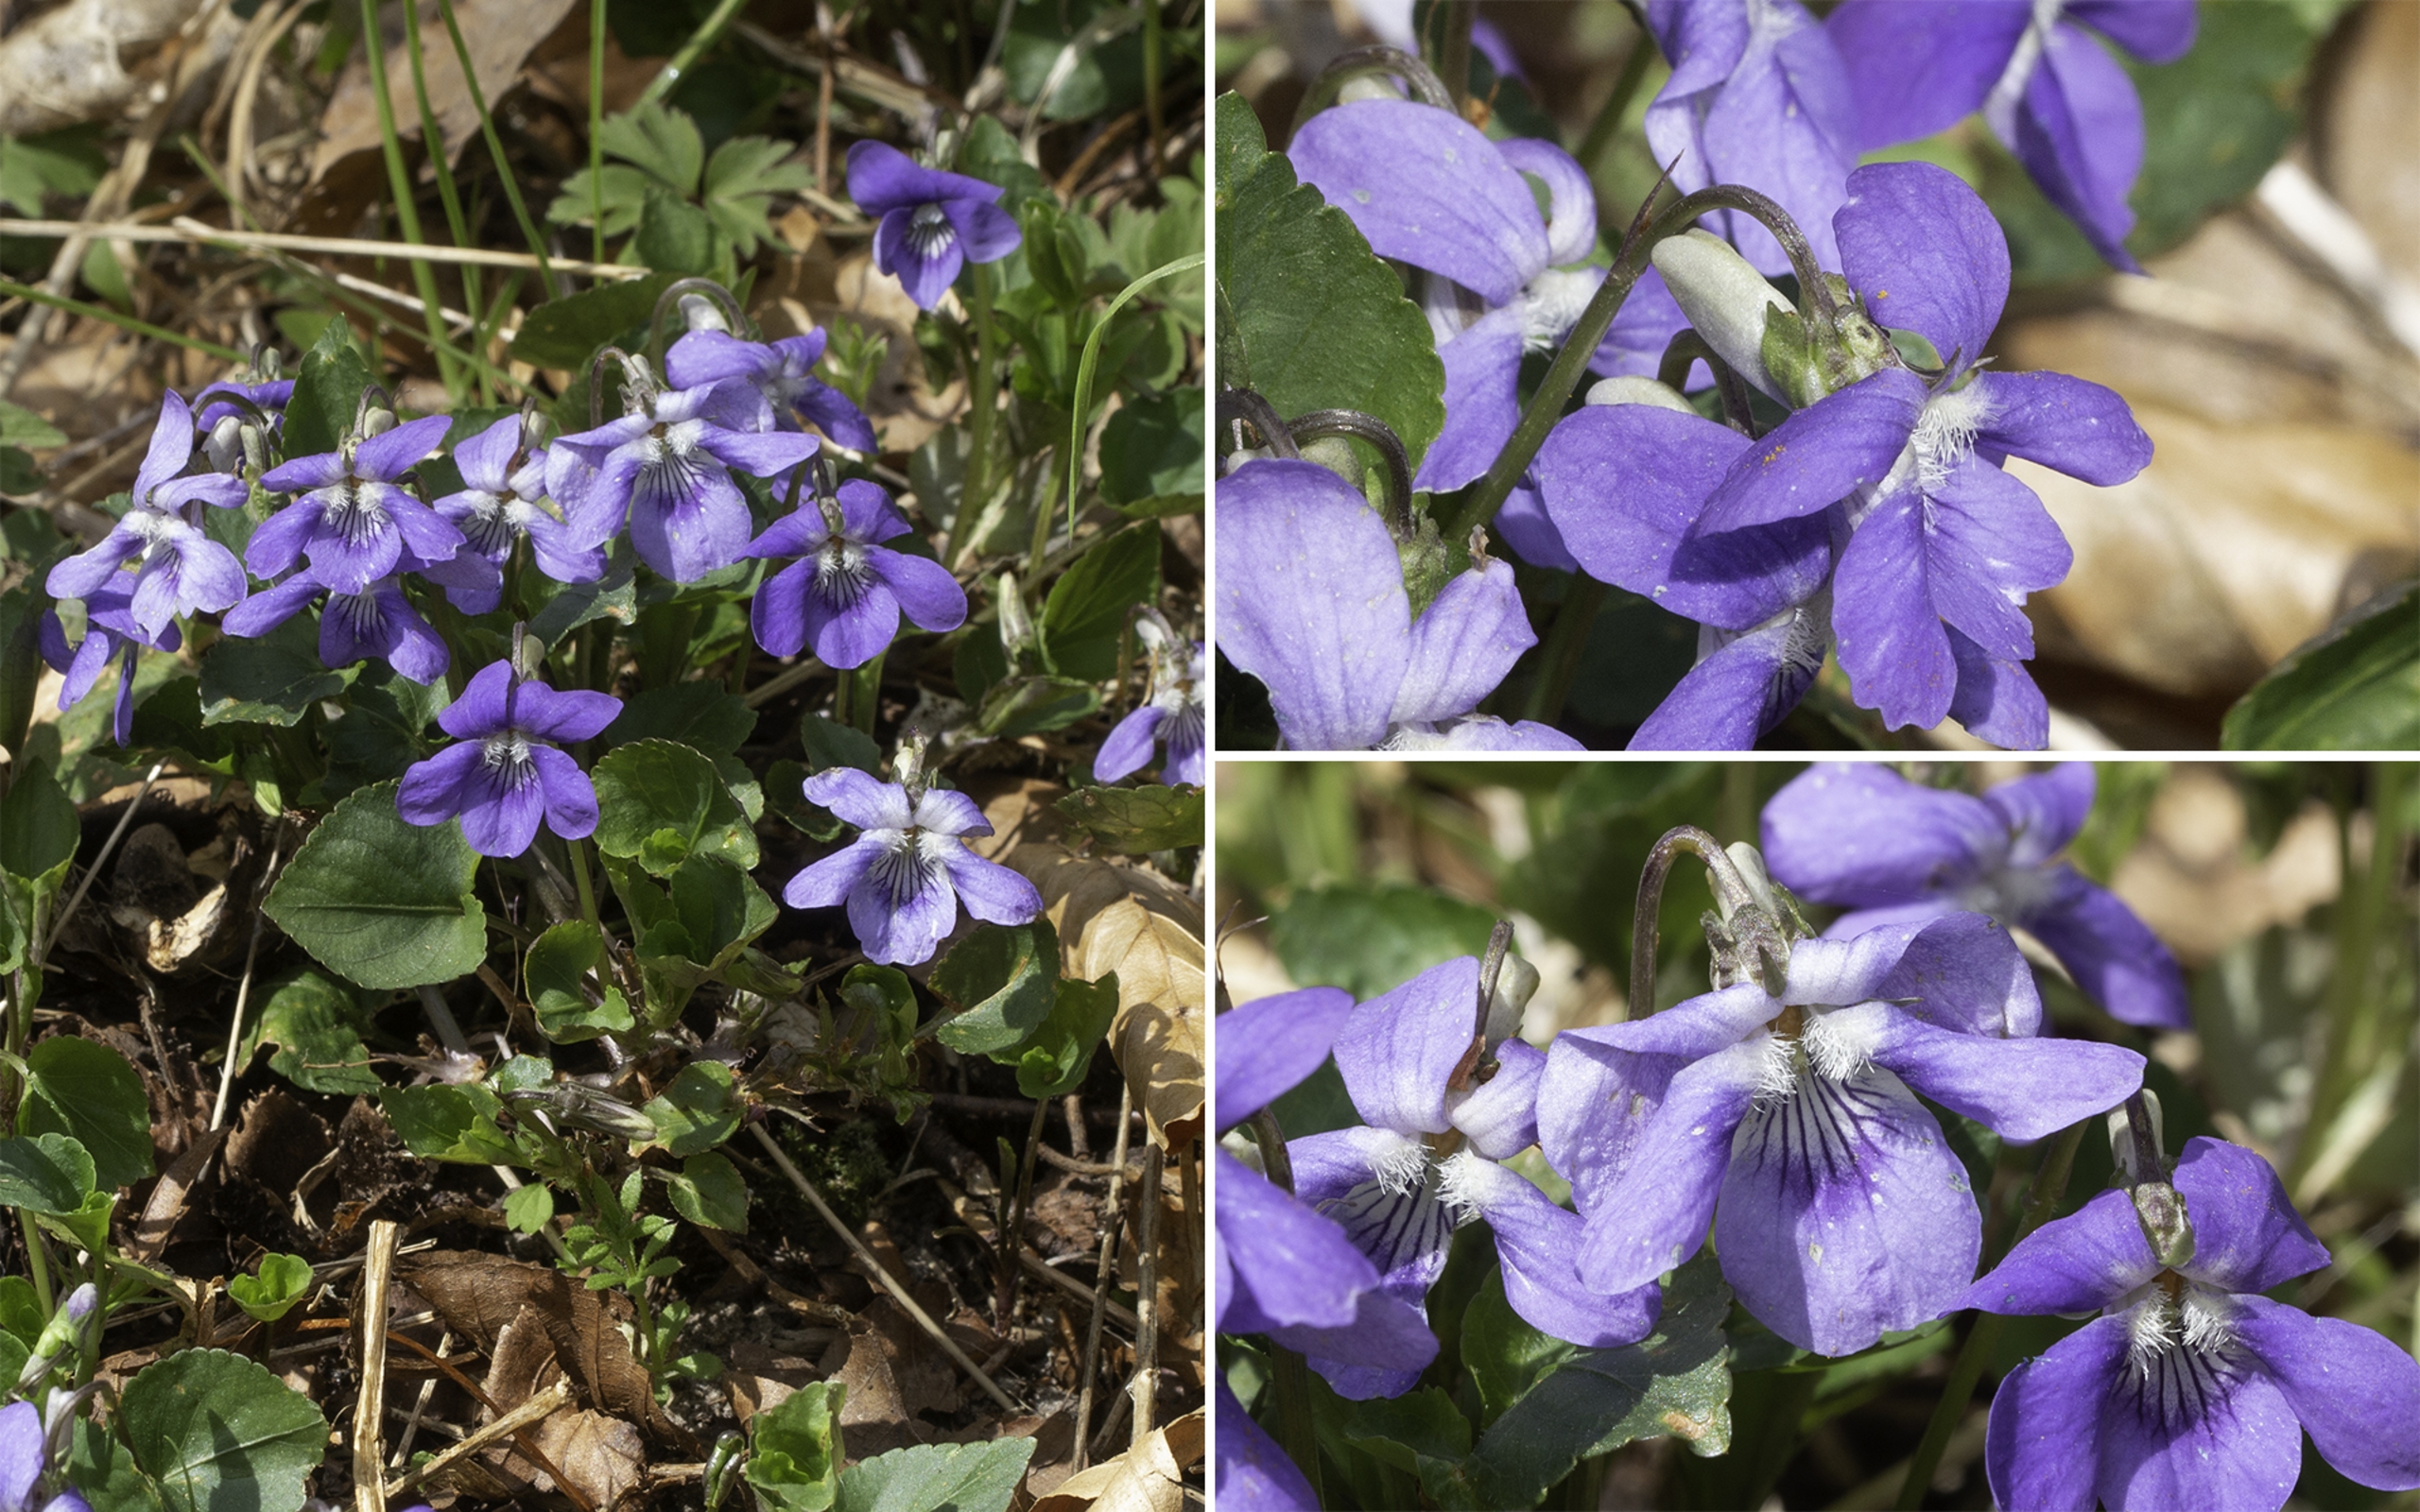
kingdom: Plantae
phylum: Tracheophyta
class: Magnoliopsida
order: Malpighiales
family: Violaceae
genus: Viola
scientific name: Viola riviniana
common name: Krat-viol
